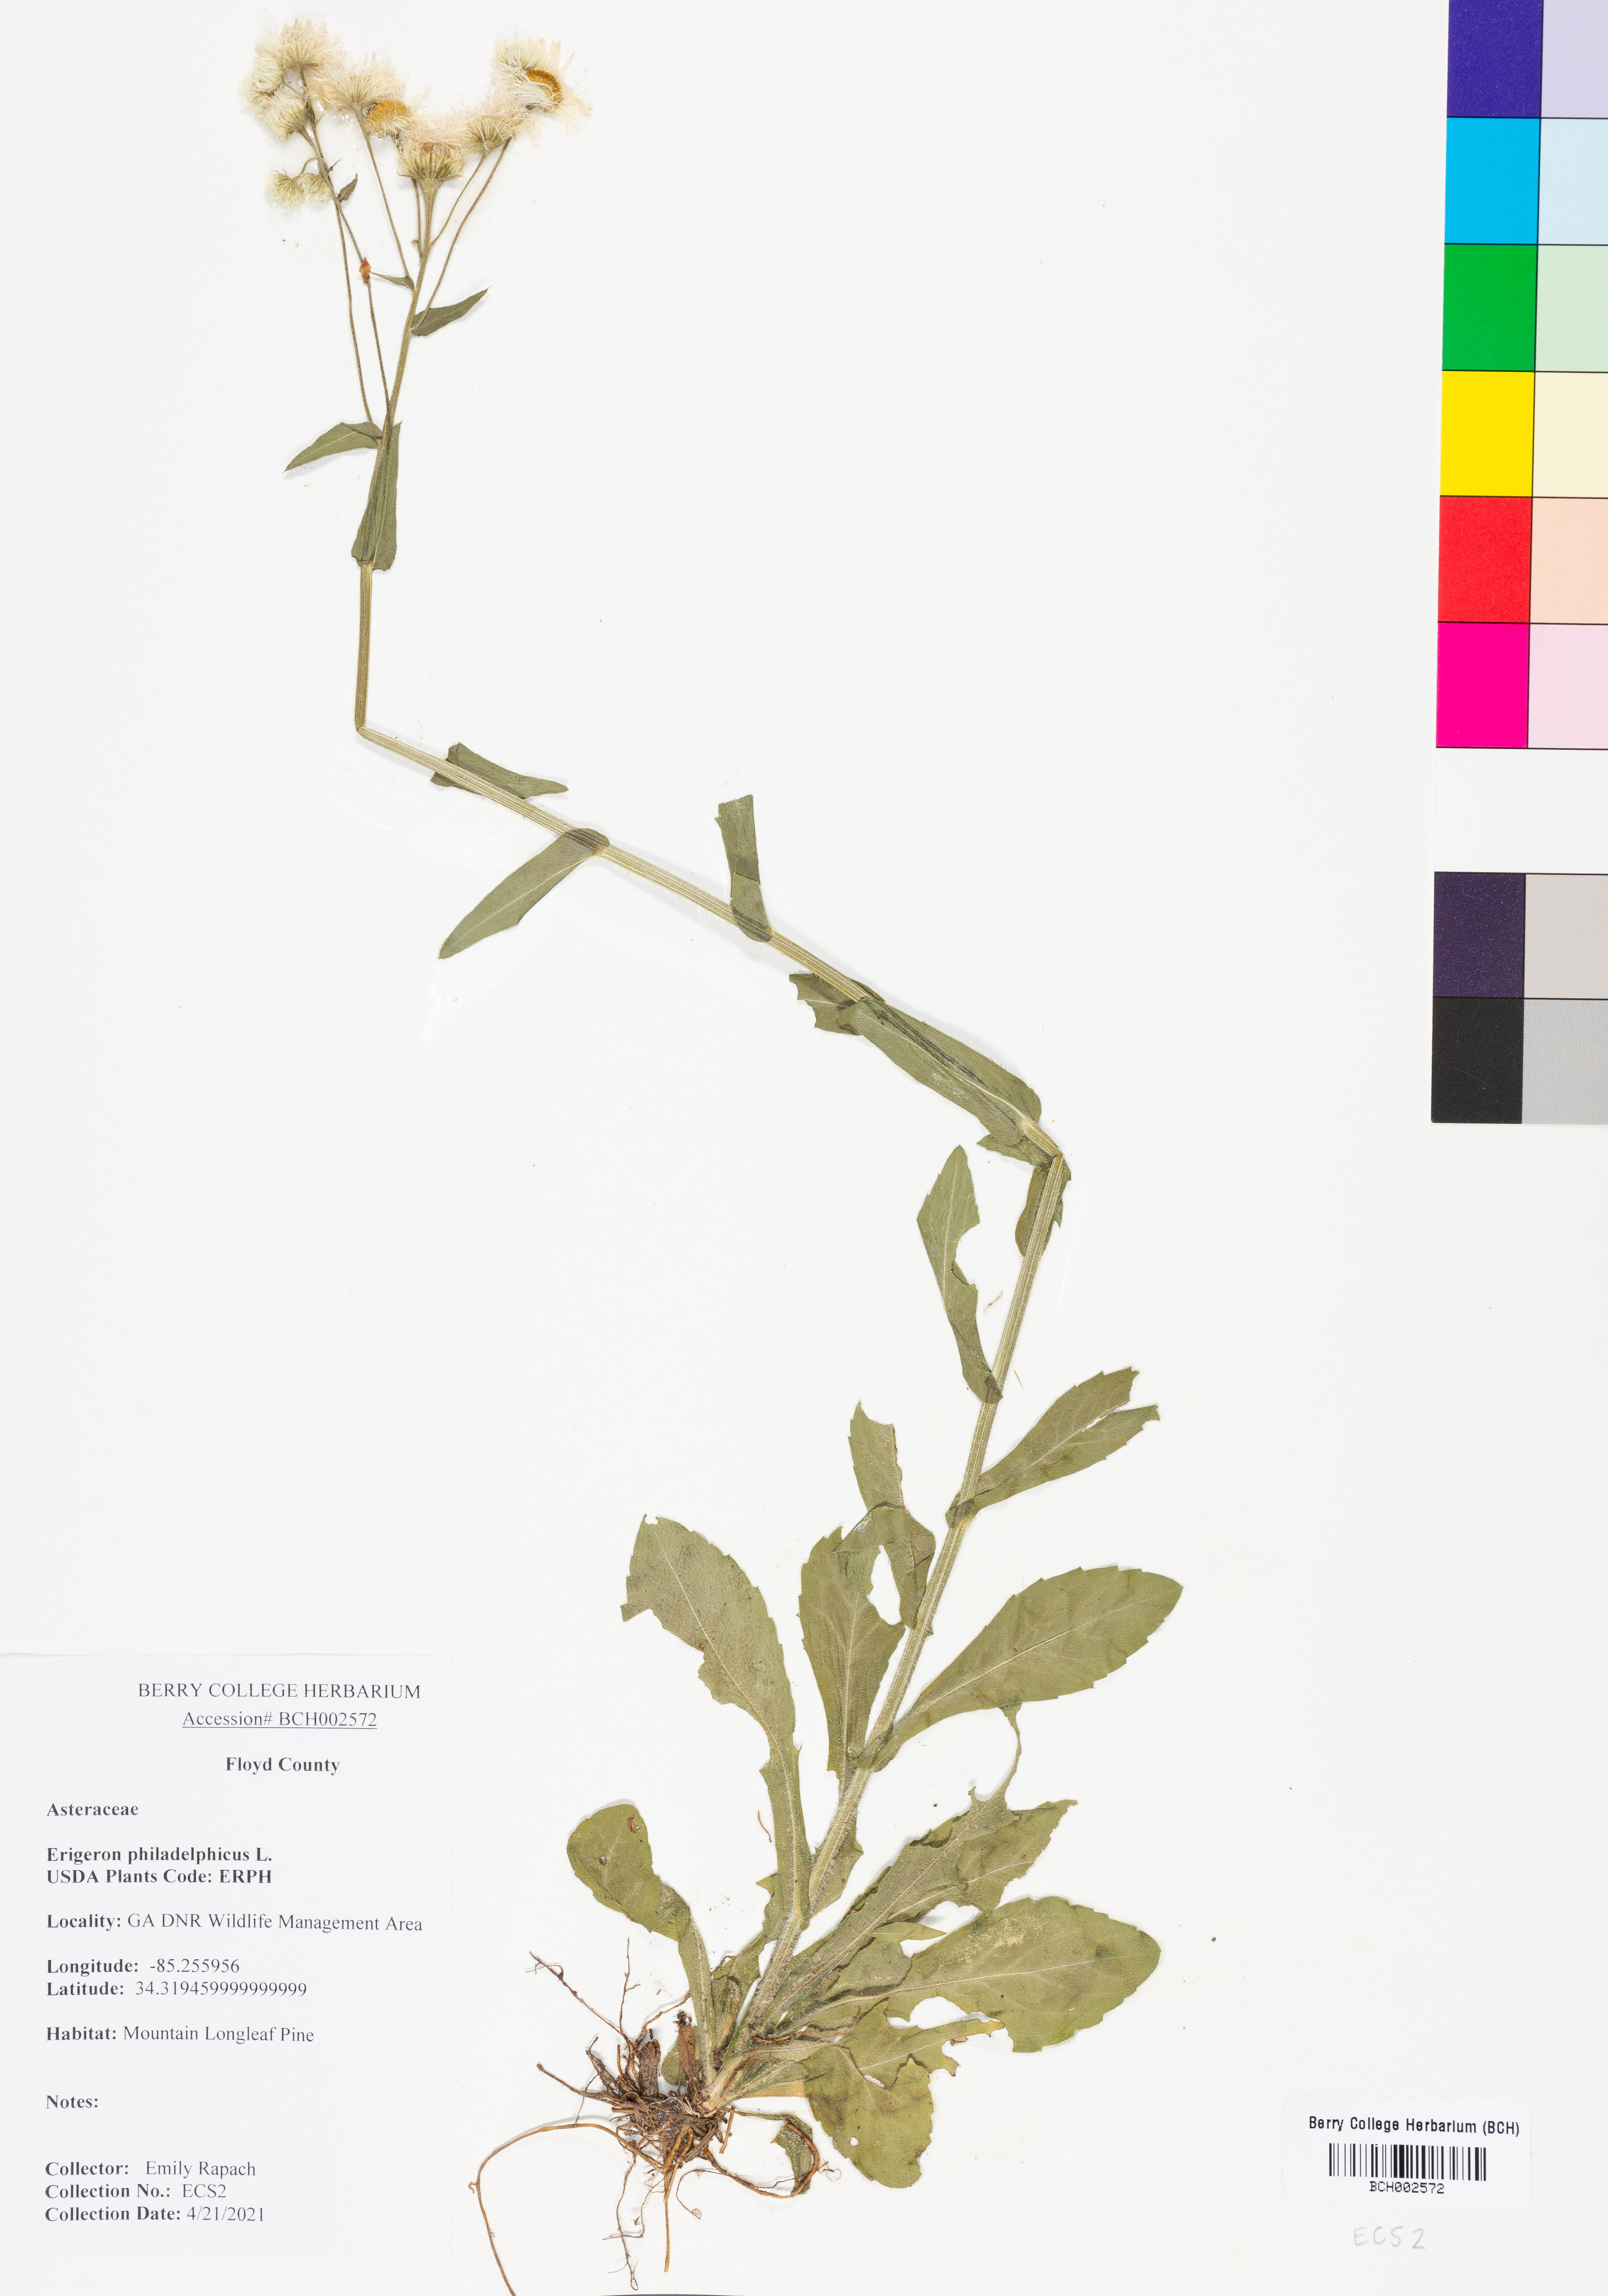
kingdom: Plantae
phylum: Tracheophyta
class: Magnoliopsida
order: Asterales
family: Asteraceae
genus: Erigeron
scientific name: Erigeron philadelphicus
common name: Robin's-plantain
